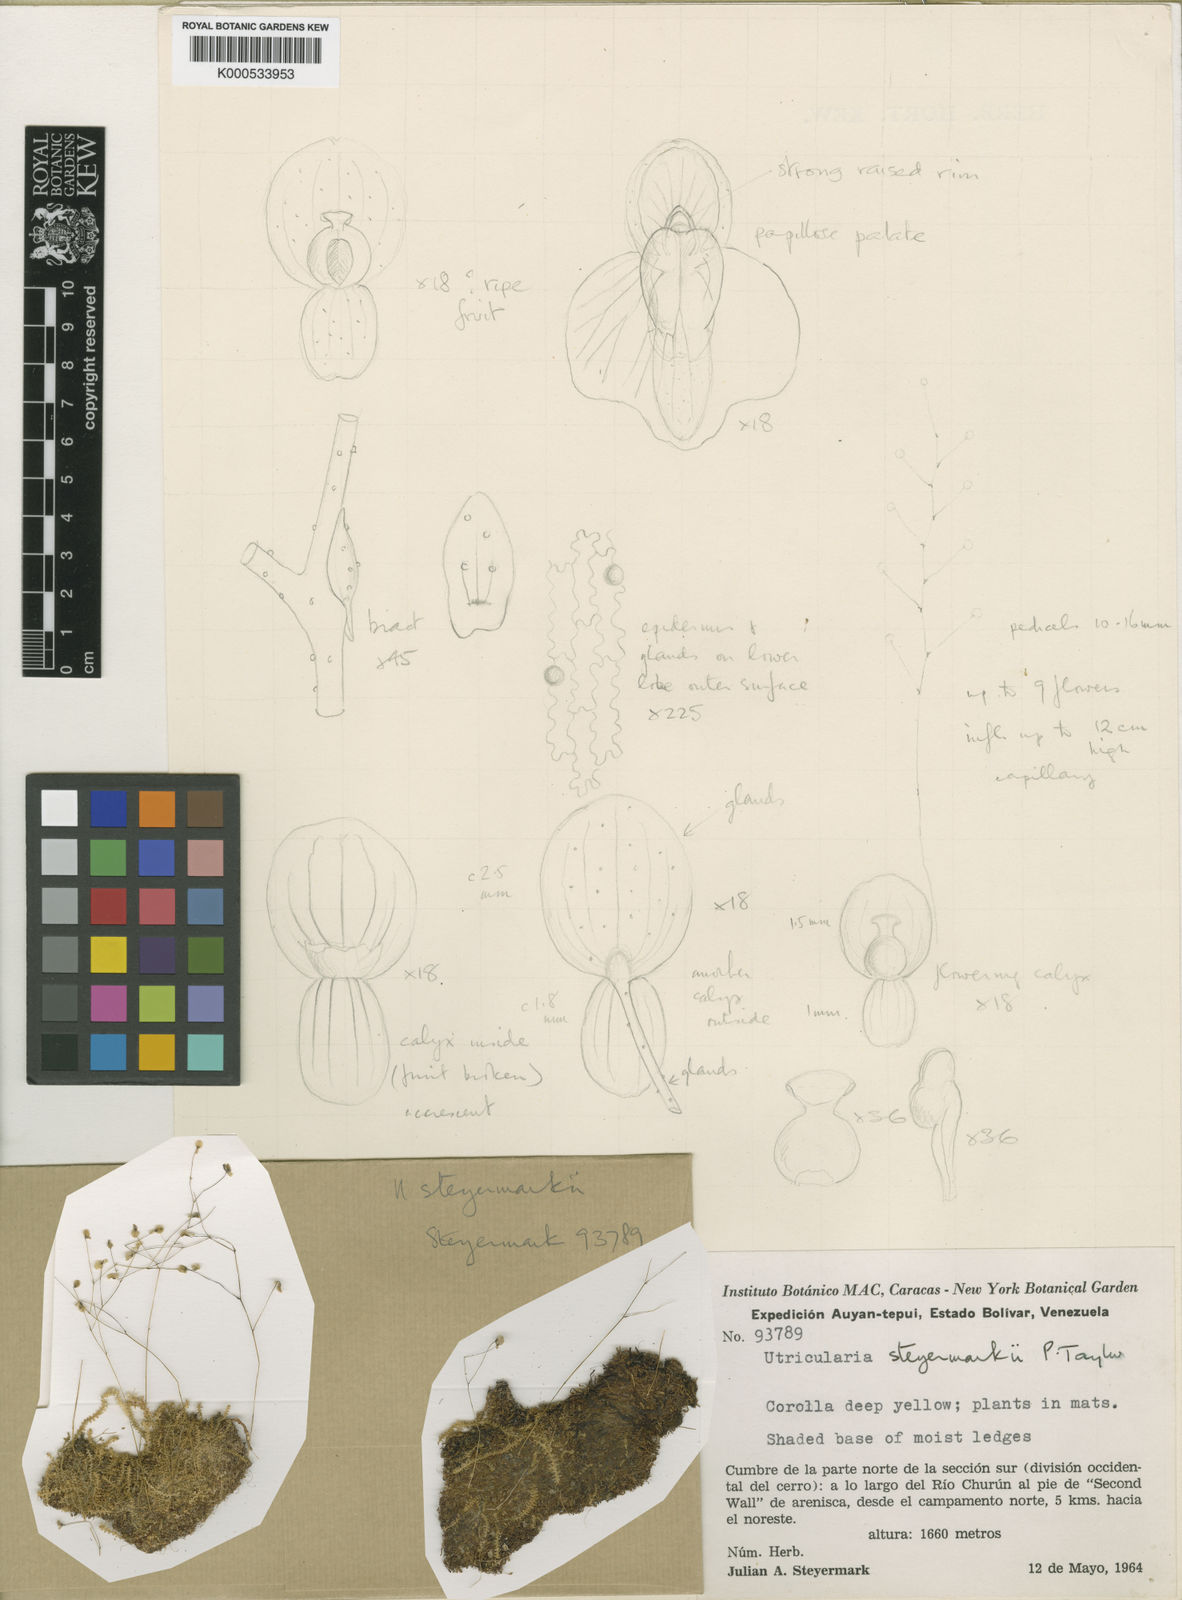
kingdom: Plantae
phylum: Tracheophyta
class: Magnoliopsida
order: Lamiales
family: Lentibulariaceae
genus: Utricularia
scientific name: Utricularia steyermarkii
